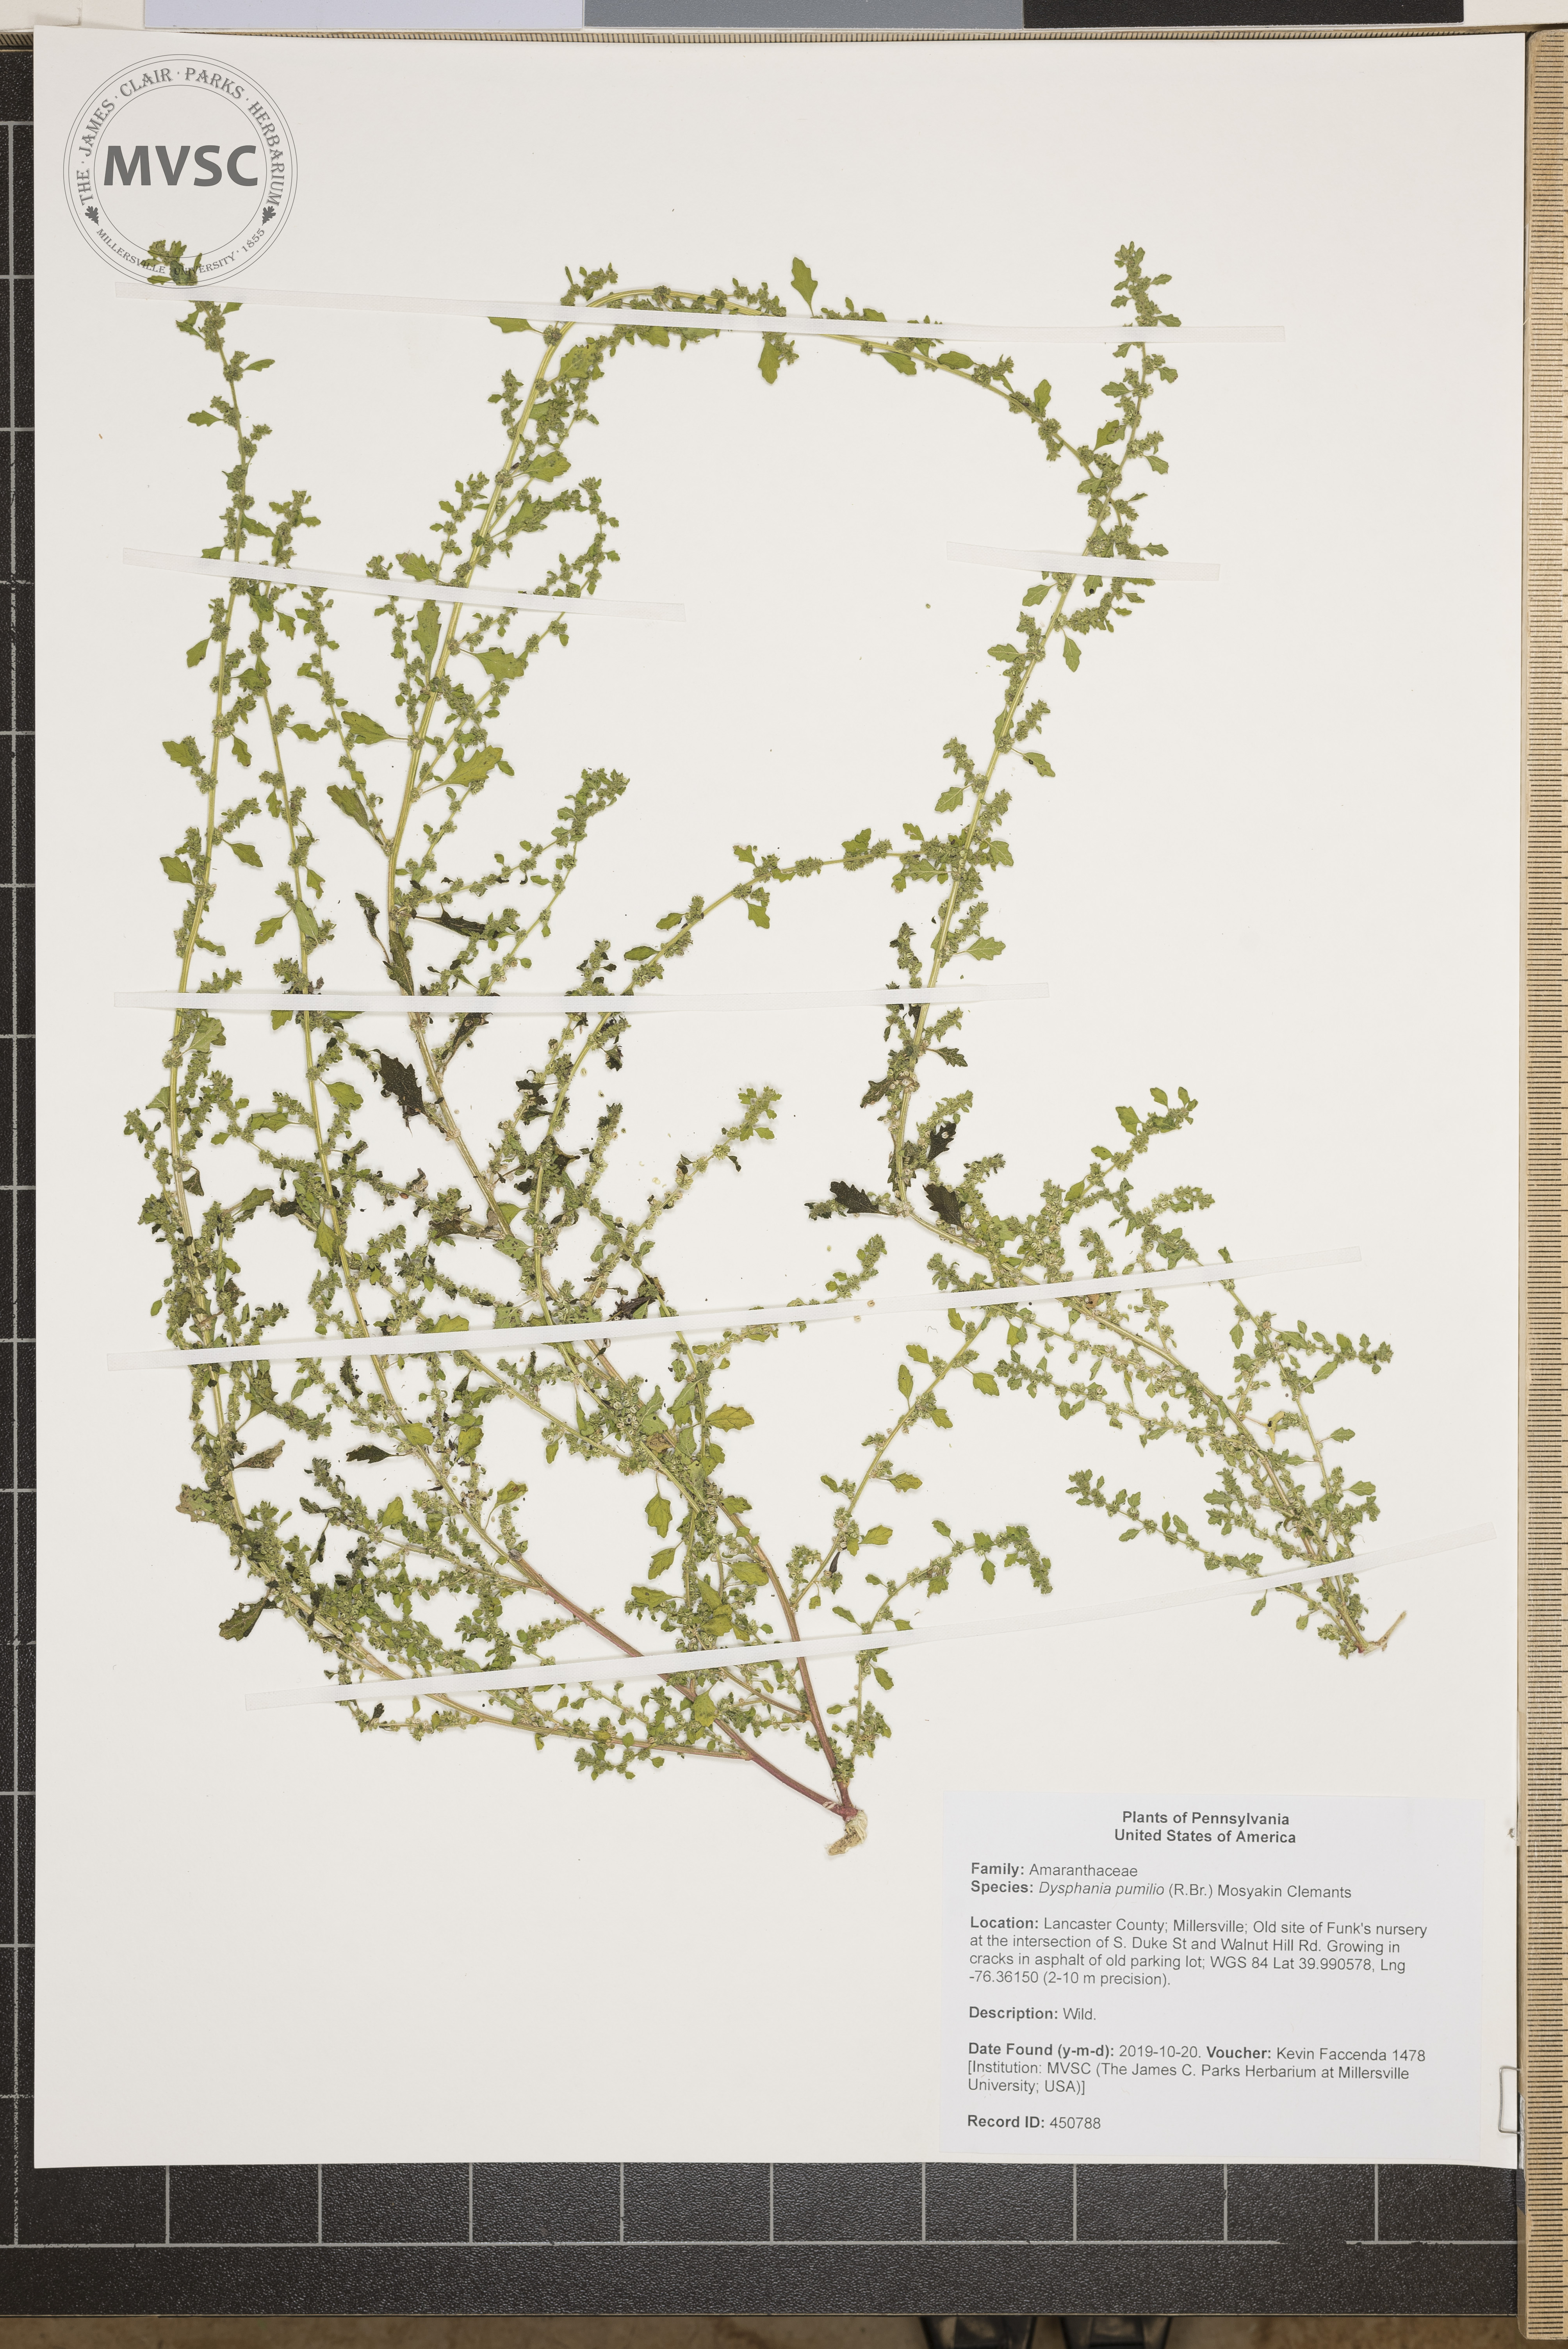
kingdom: Plantae
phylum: Tracheophyta
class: Magnoliopsida
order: Caryophyllales
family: Amaranthaceae
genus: Dysphania
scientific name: Dysphania pumilio
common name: Clammy goosefoot
